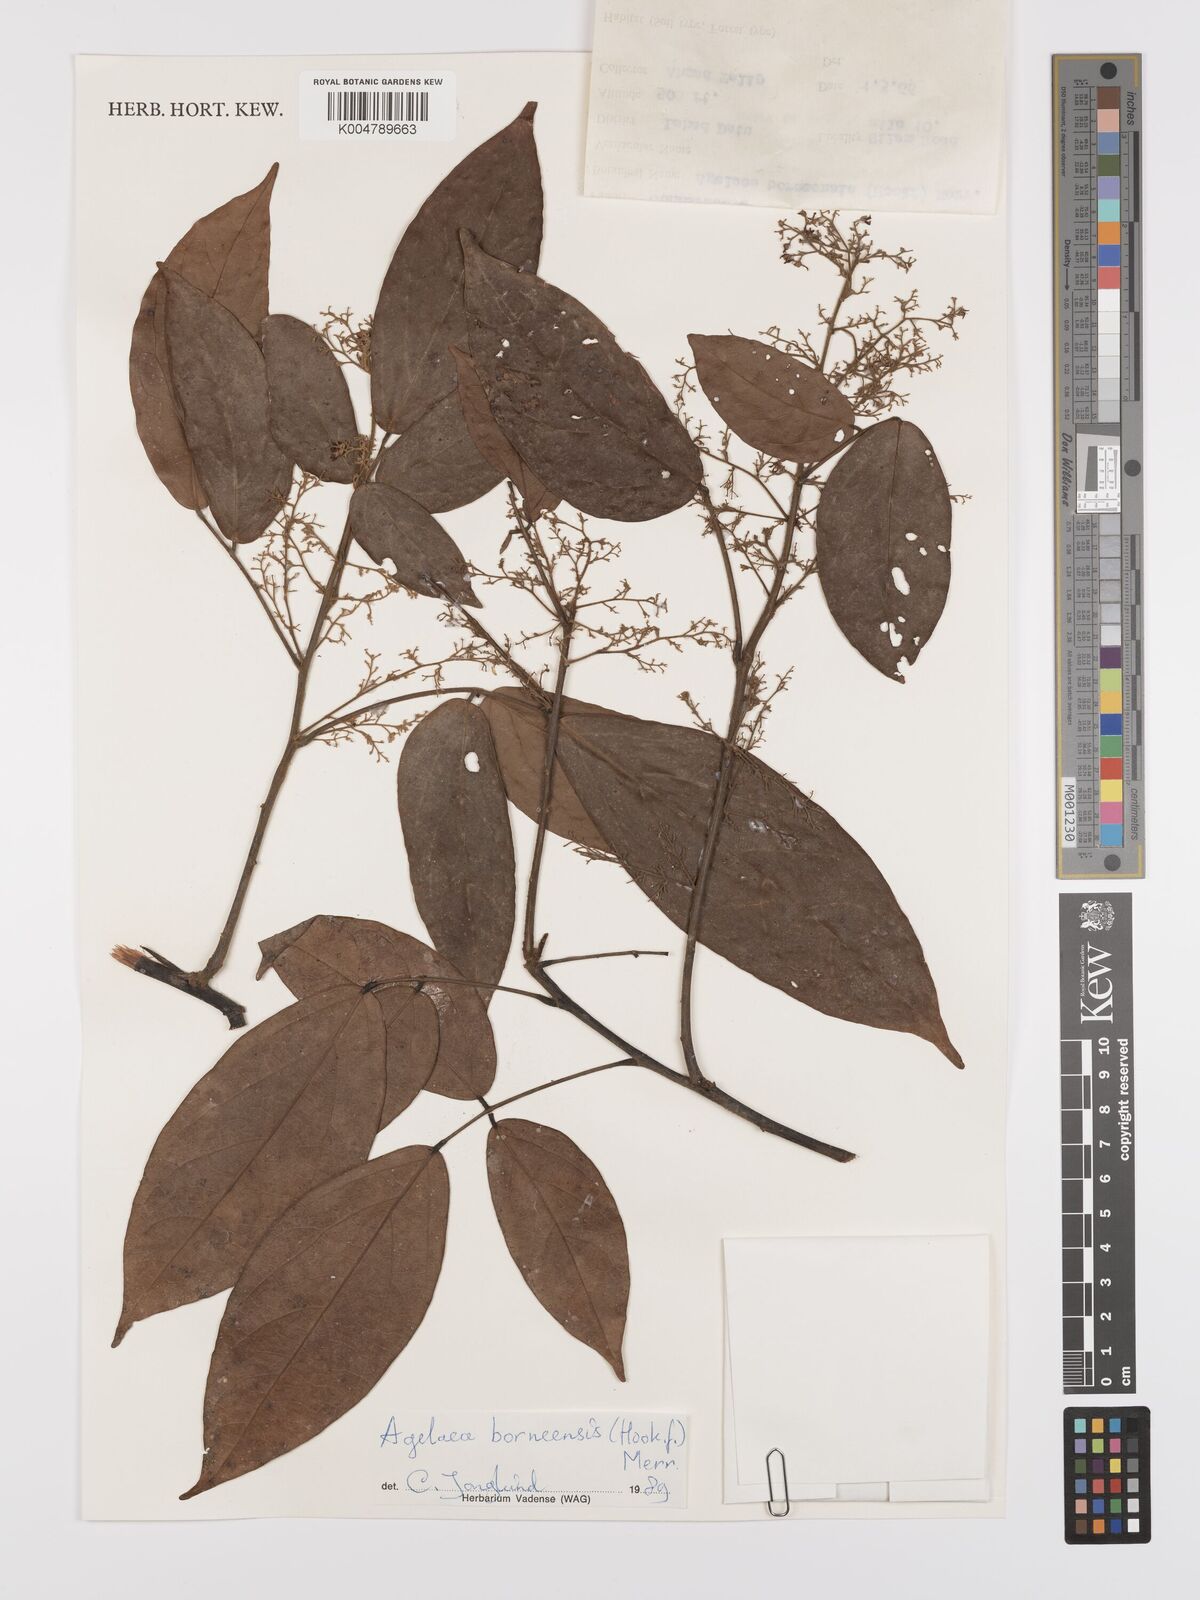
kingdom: Plantae
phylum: Tracheophyta
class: Magnoliopsida
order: Oxalidales
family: Connaraceae
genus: Agelaea
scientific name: Agelaea borneensis
